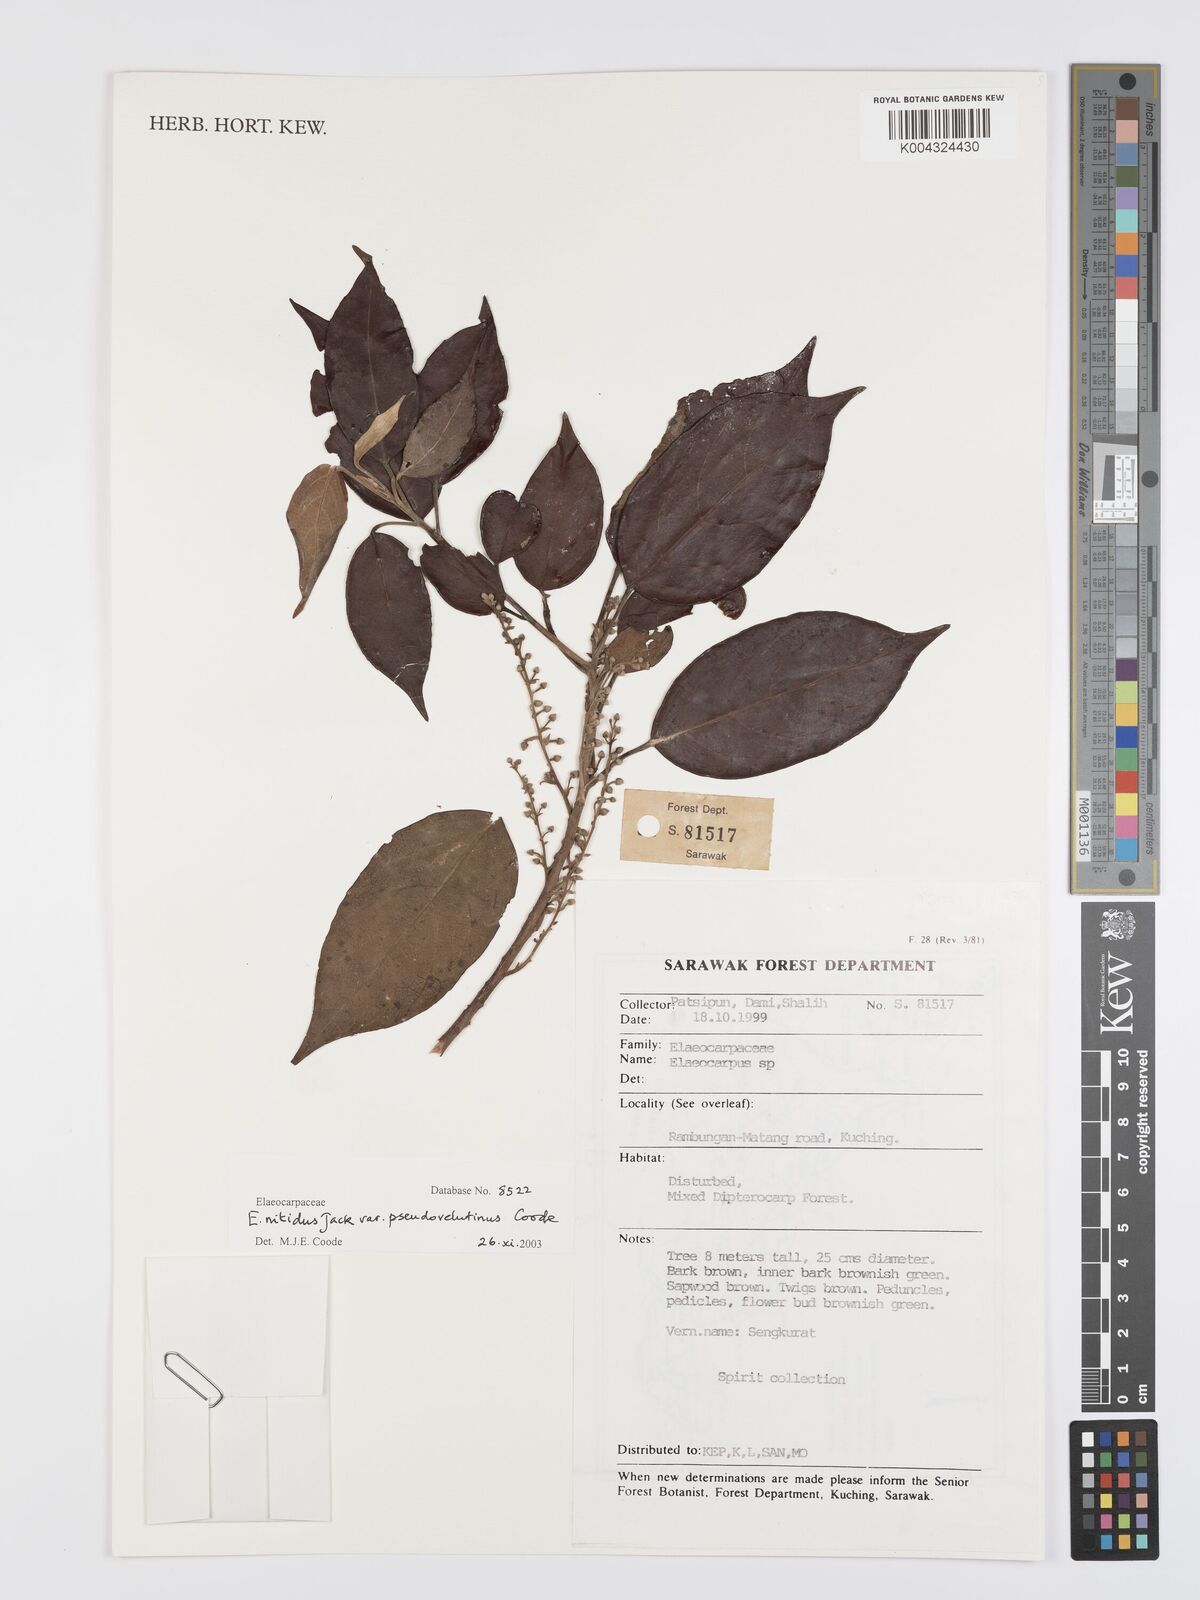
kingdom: Plantae
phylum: Tracheophyta
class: Magnoliopsida
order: Oxalidales
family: Elaeocarpaceae
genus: Elaeocarpus
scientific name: Elaeocarpus nitidus
